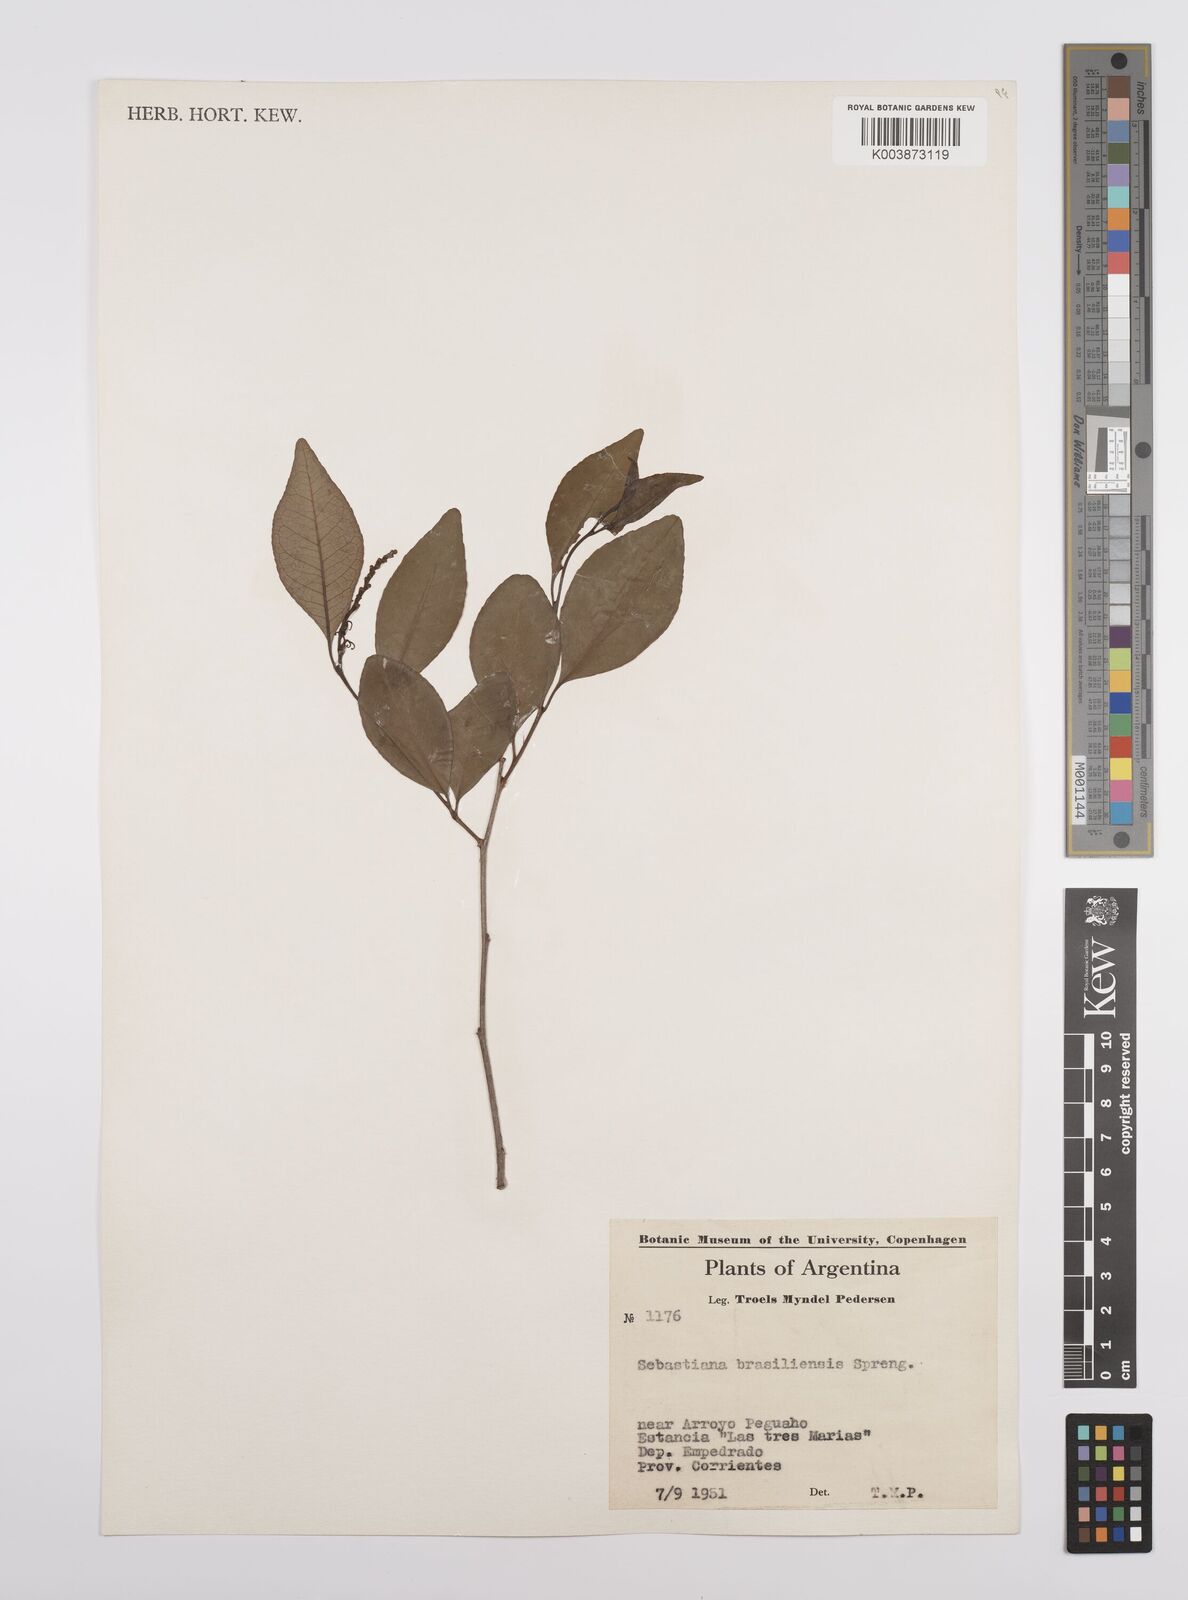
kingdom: Plantae
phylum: Tracheophyta
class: Magnoliopsida
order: Malpighiales
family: Euphorbiaceae
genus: Sebastiania
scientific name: Sebastiania brasiliensis
